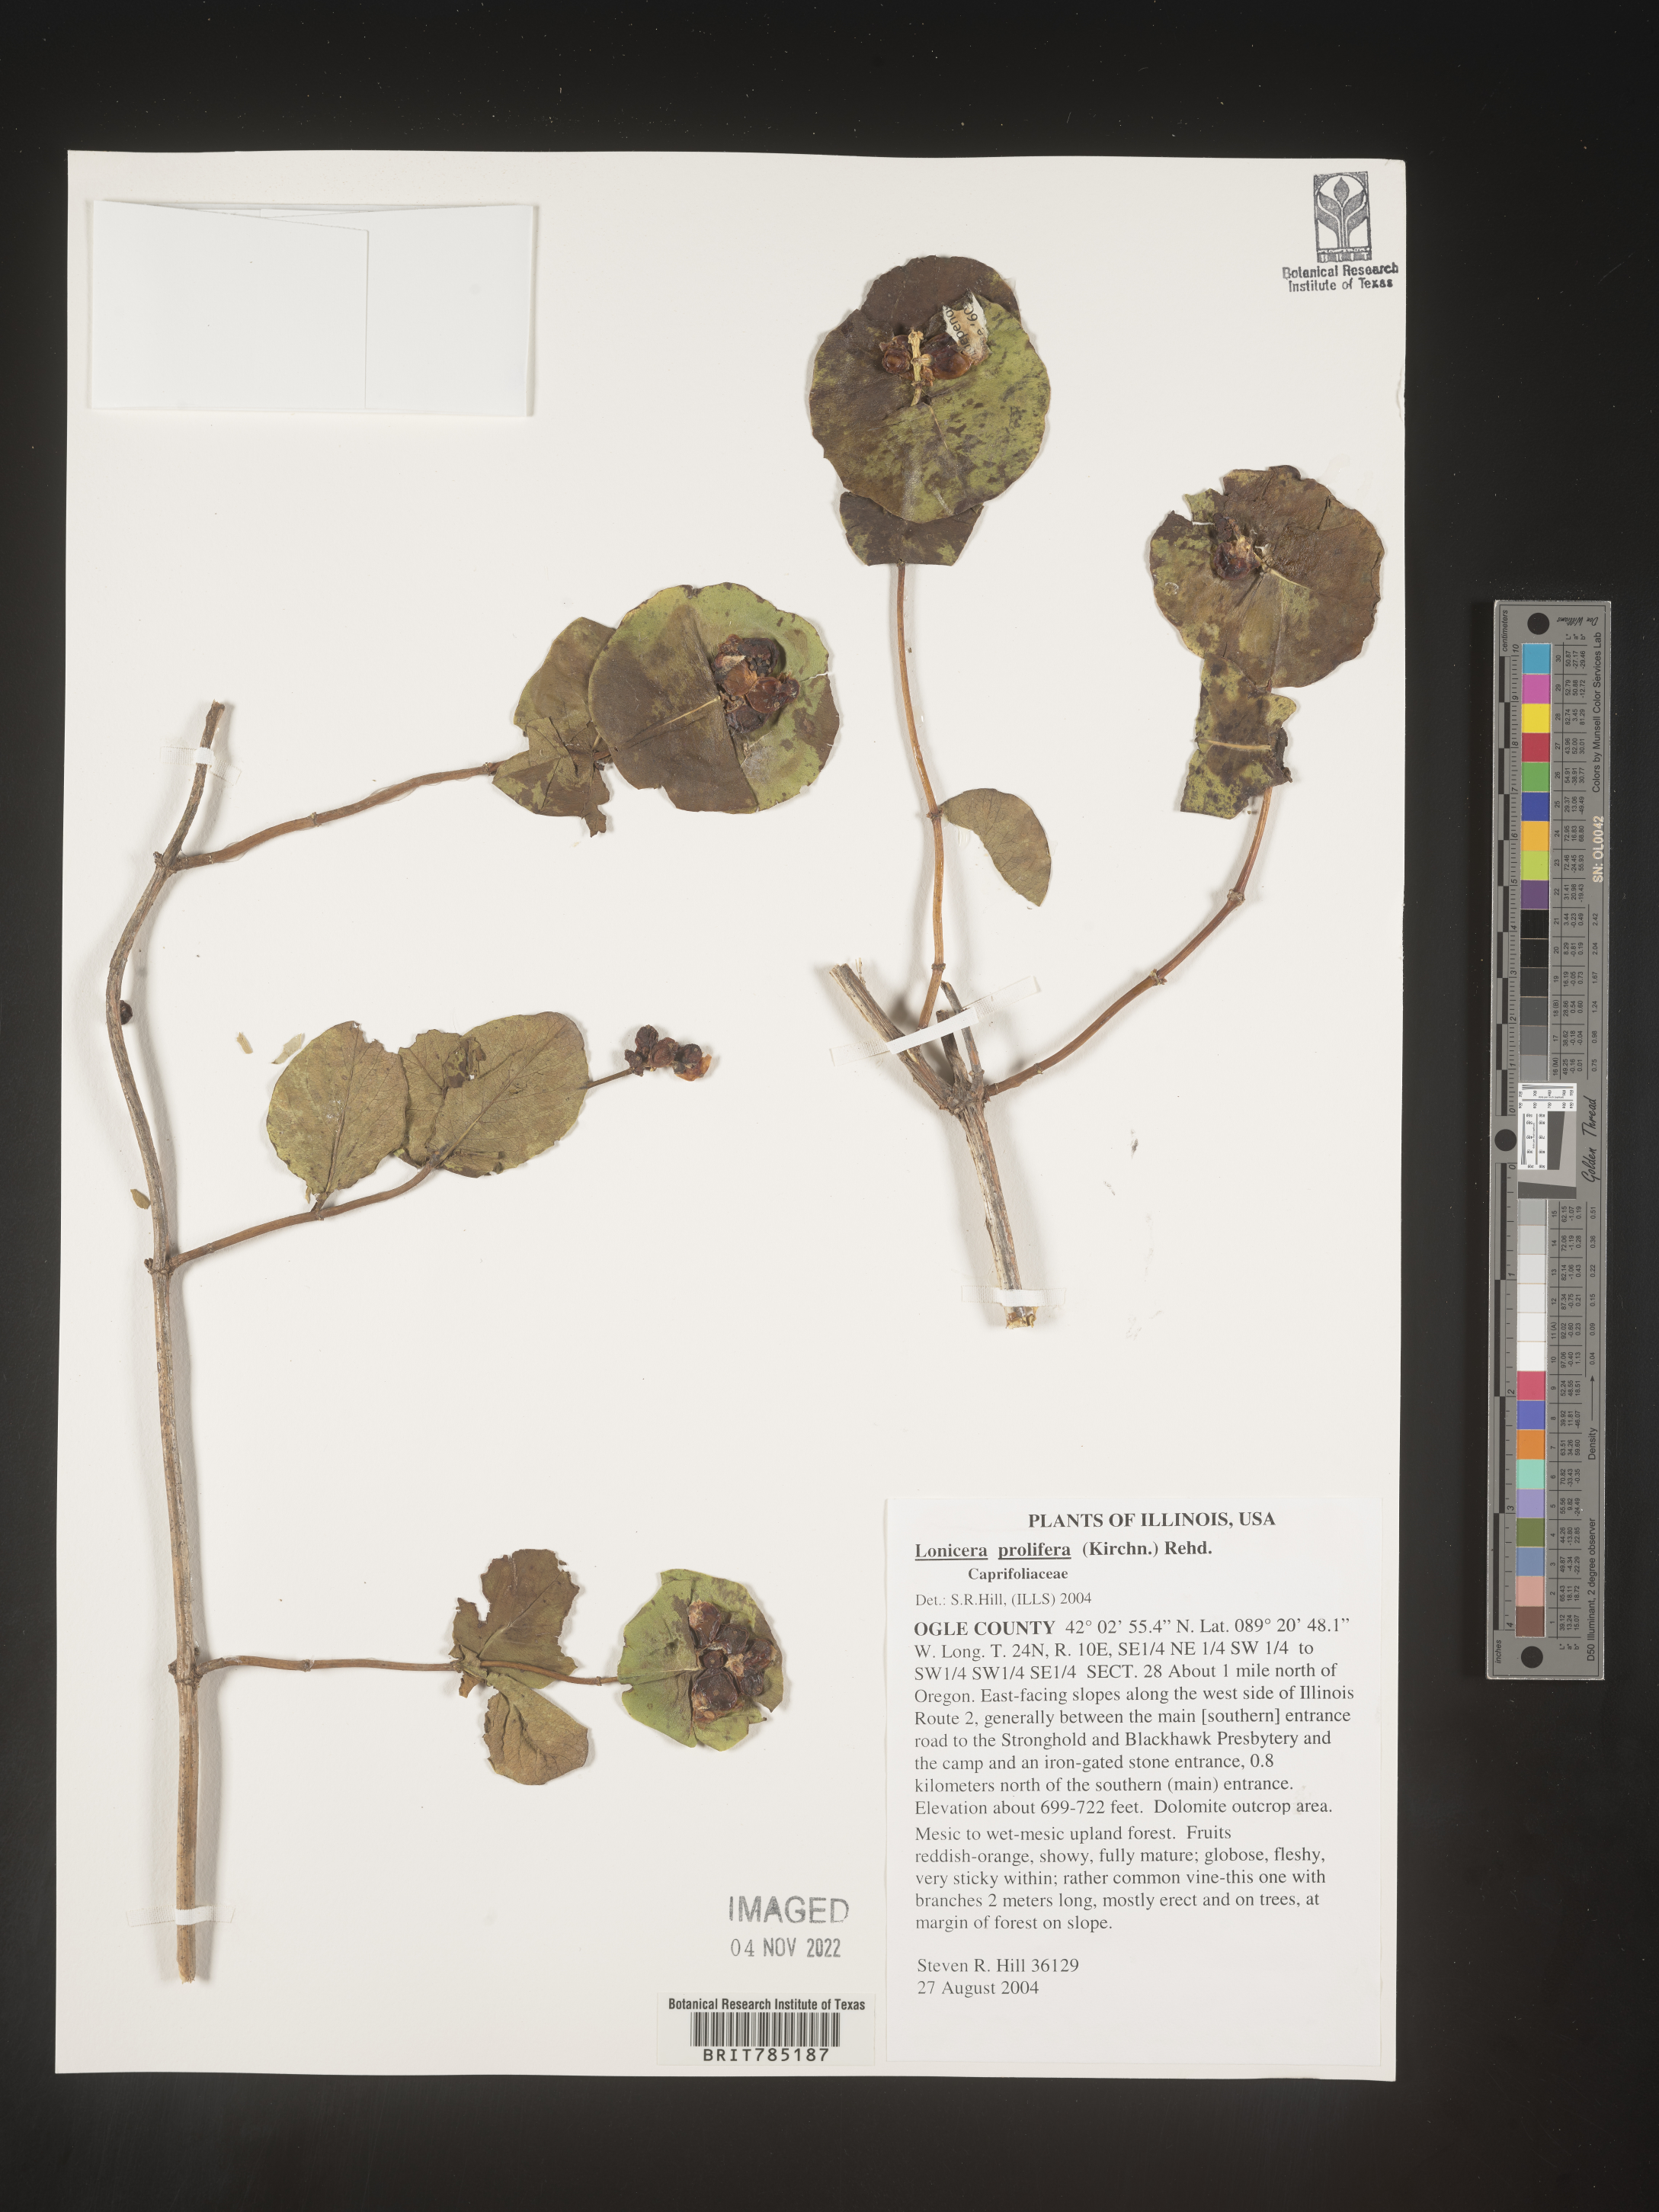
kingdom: Plantae
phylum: Tracheophyta
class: Magnoliopsida
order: Dipsacales
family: Caprifoliaceae
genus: Lonicera
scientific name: Lonicera
